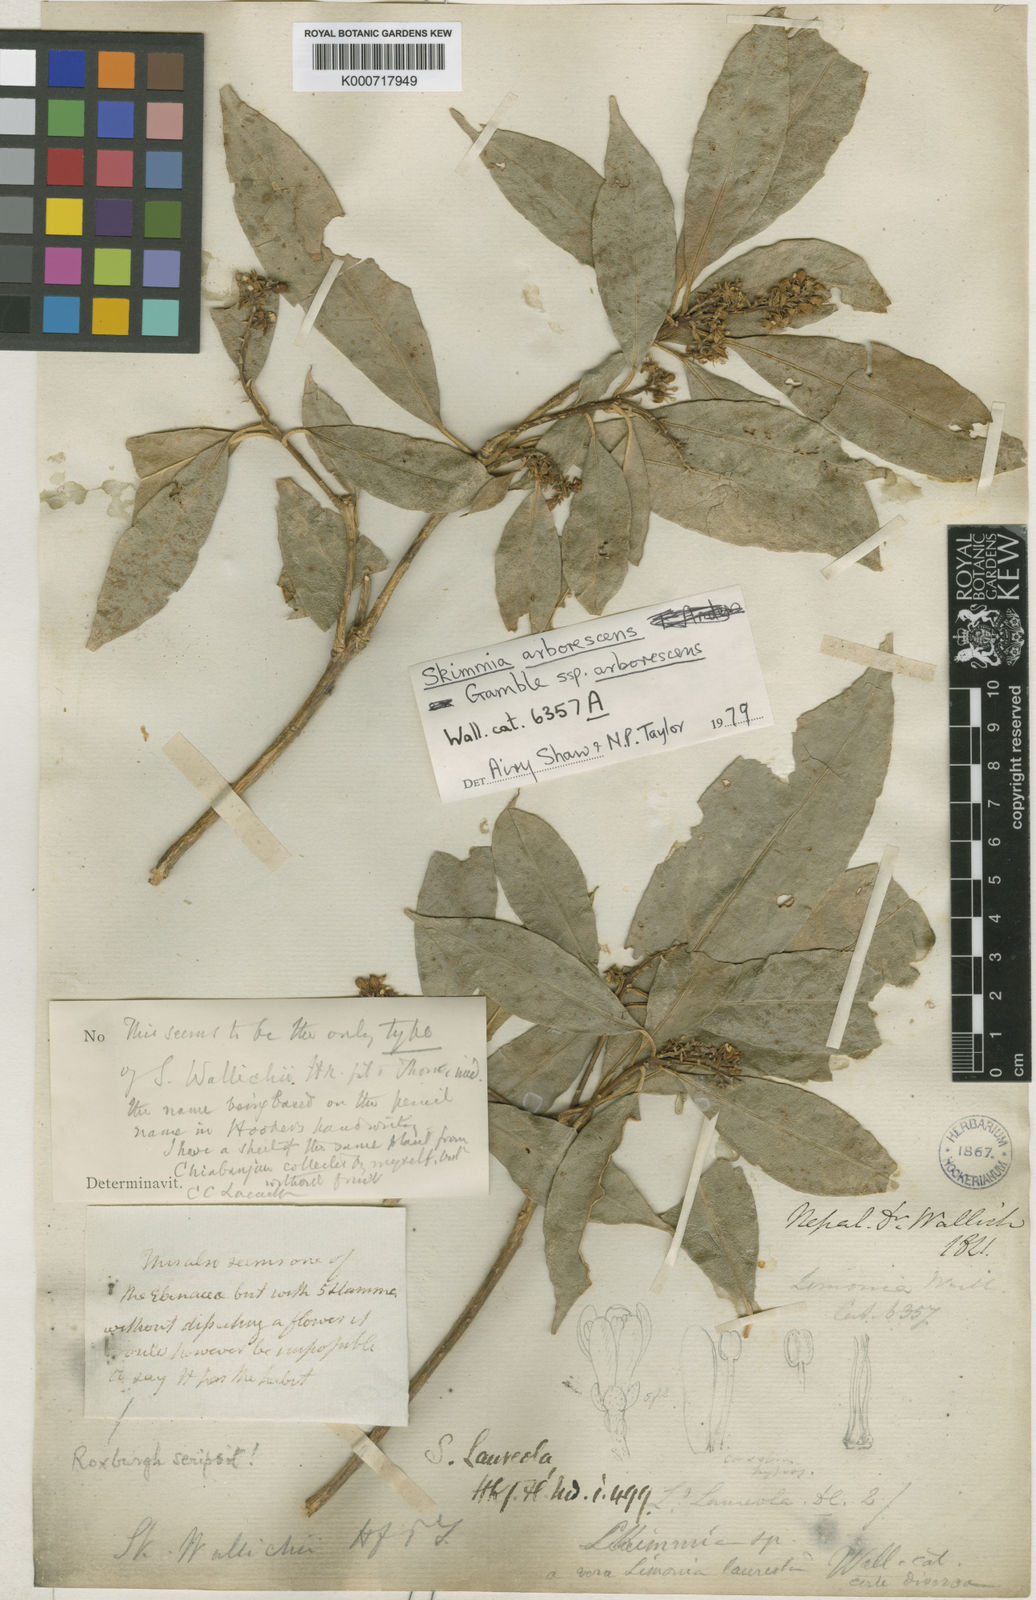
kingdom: Plantae
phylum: Tracheophyta
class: Magnoliopsida
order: Sapindales
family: Rutaceae
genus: Skimmia
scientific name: Skimmia laureola
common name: Ner
